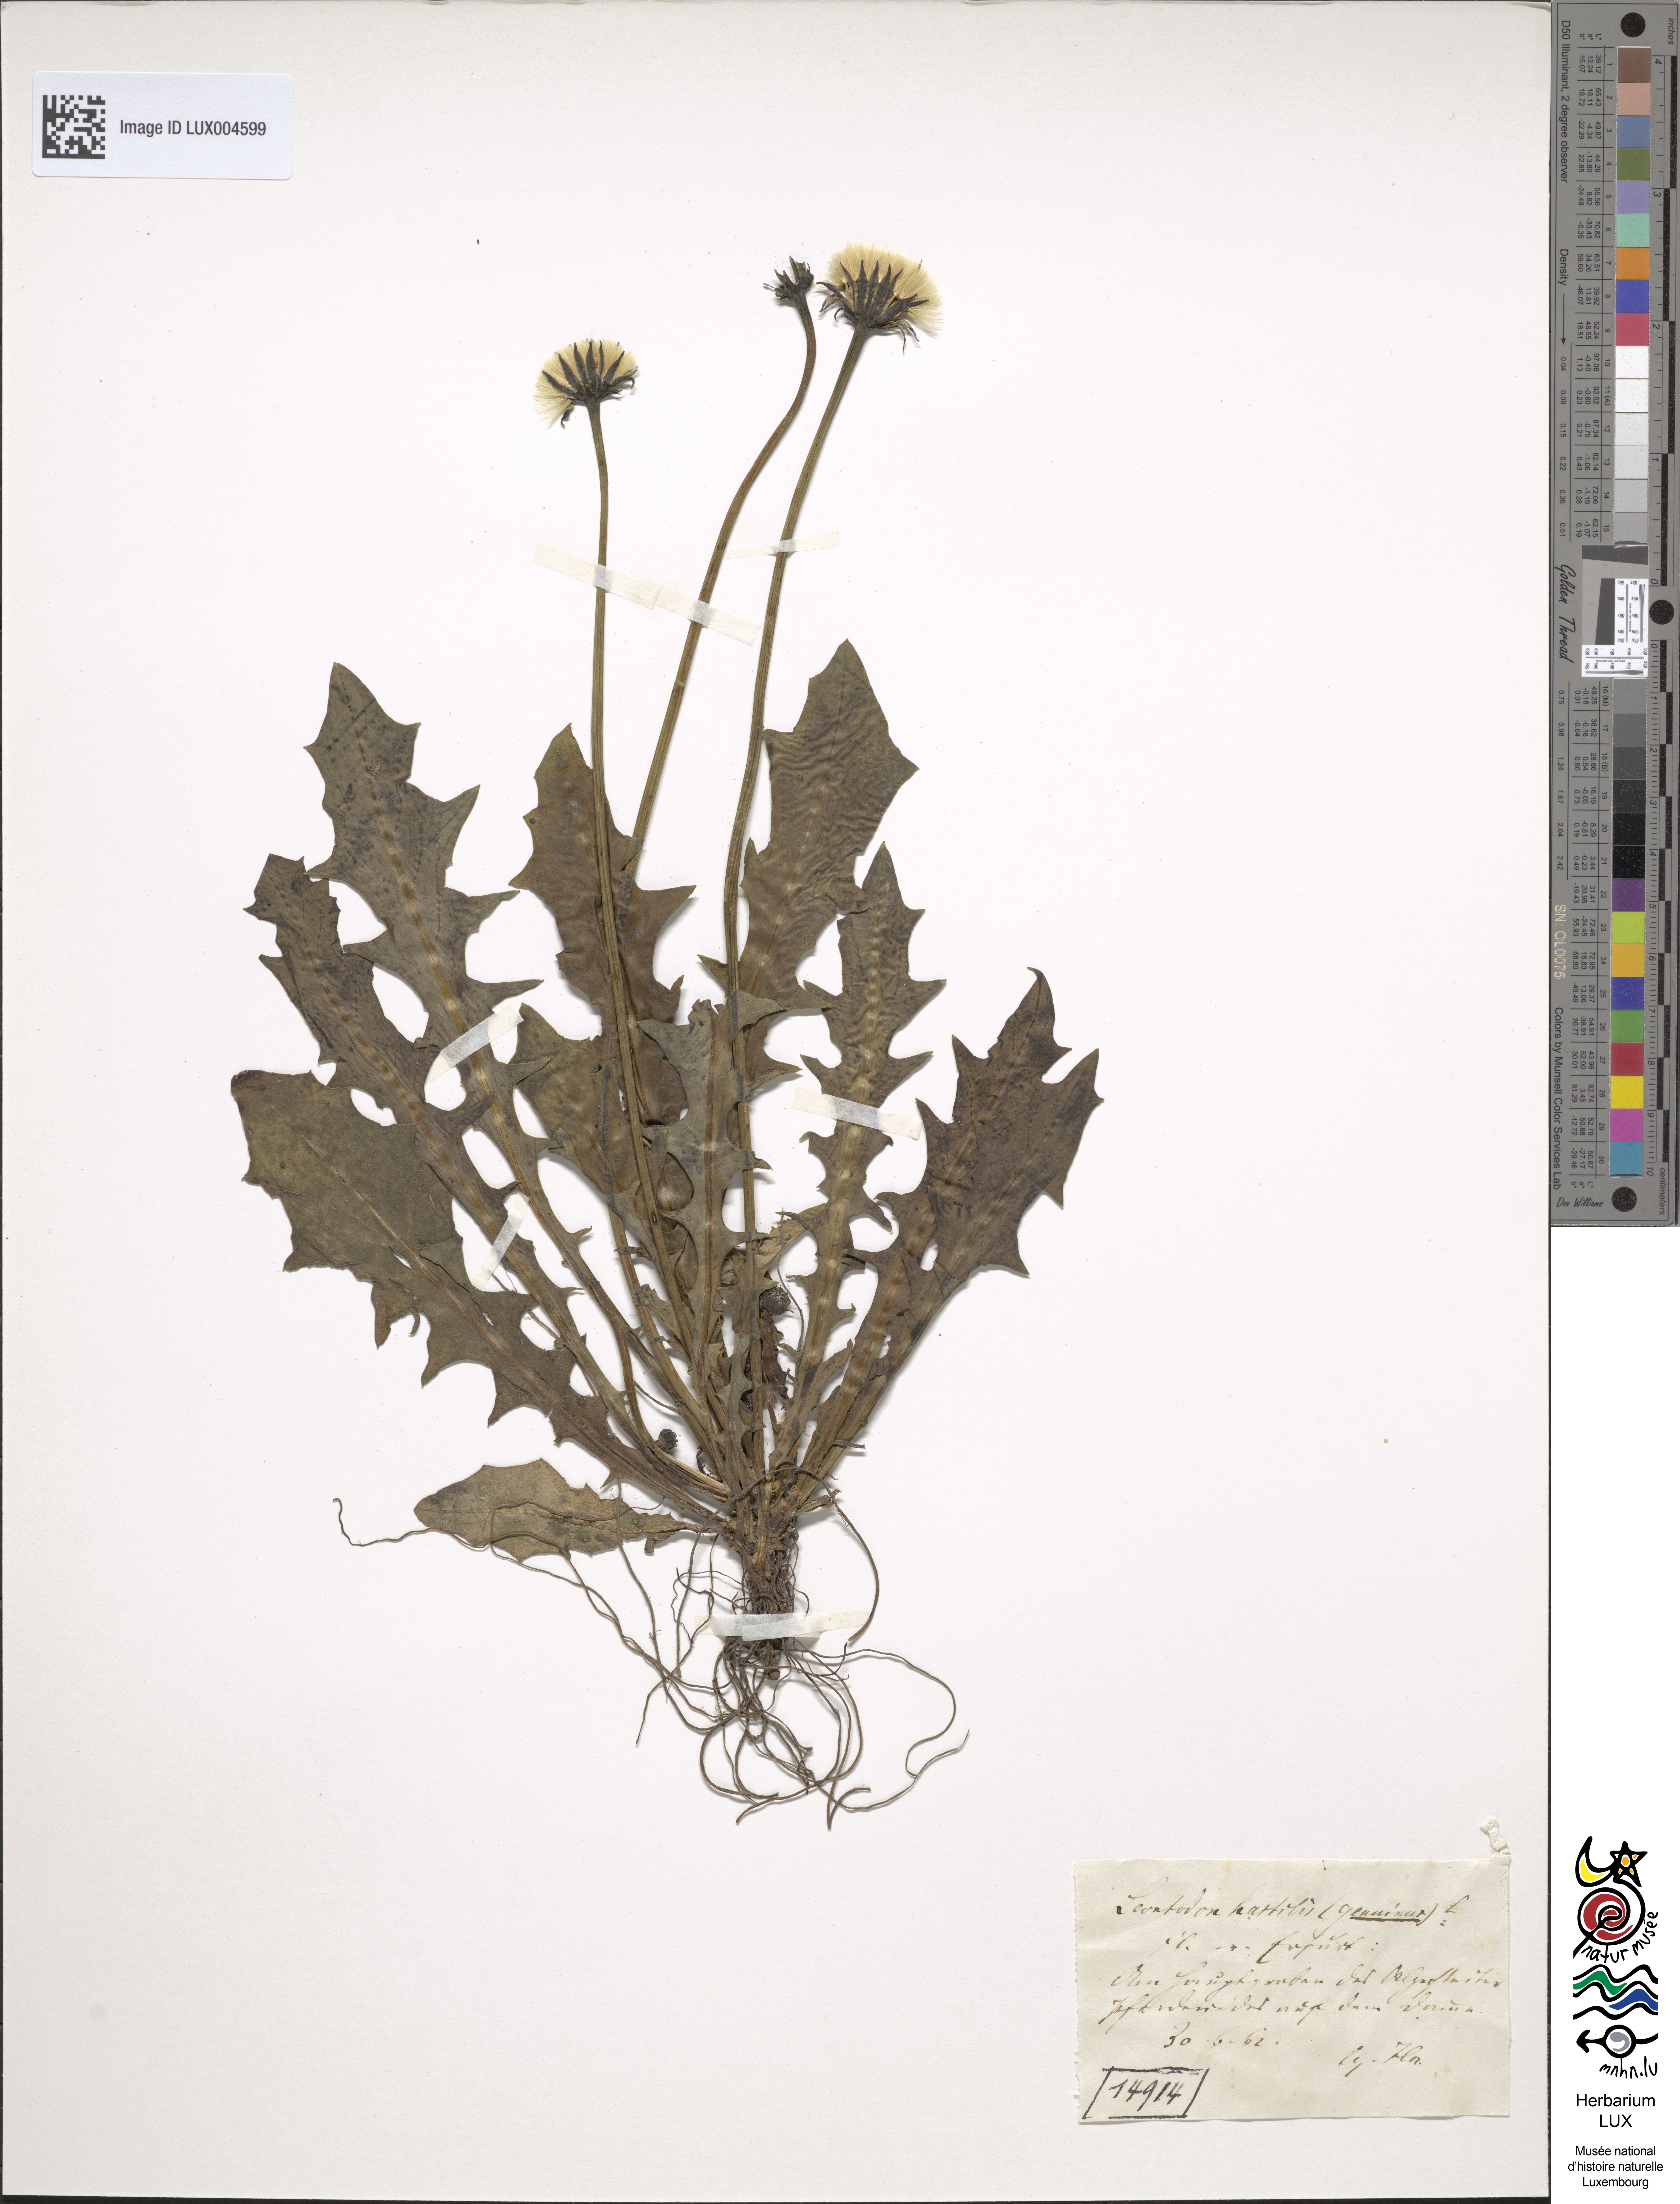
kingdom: Plantae
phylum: Tracheophyta
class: Magnoliopsida
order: Asterales
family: Asteraceae
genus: Leontodon
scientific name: Leontodon hispidus
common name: Rough hawkbit
